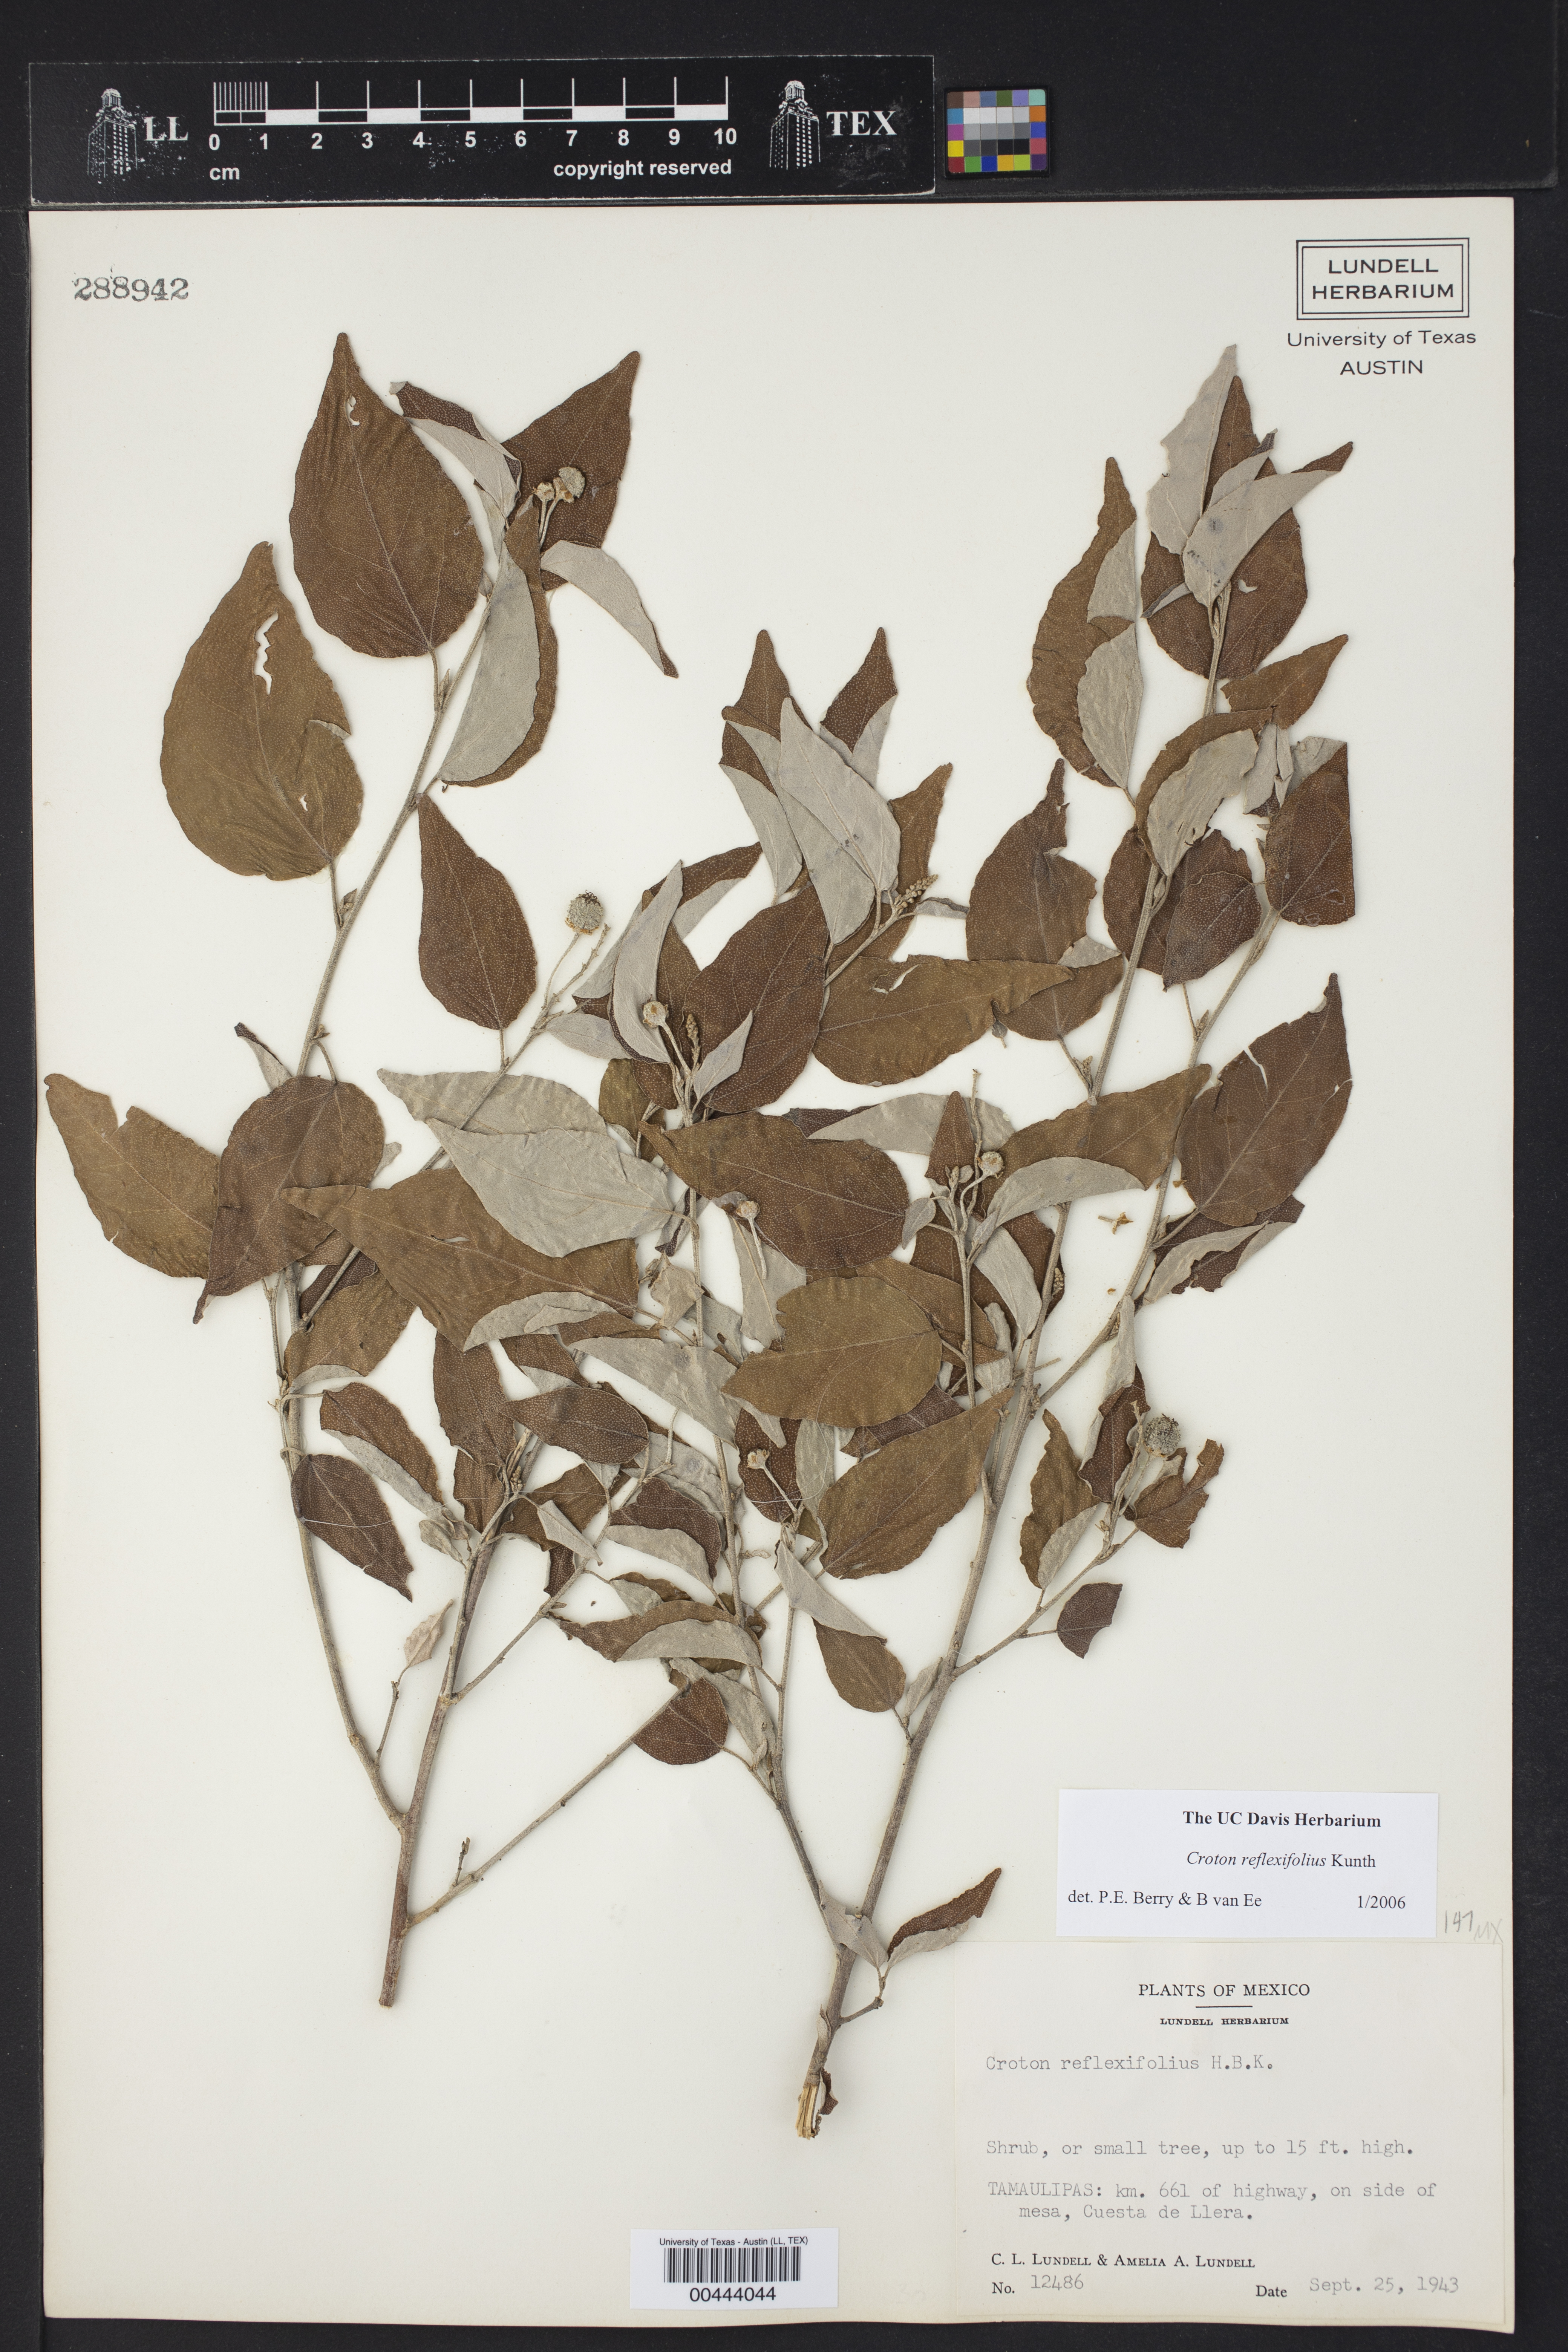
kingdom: Plantae
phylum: Tracheophyta
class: Magnoliopsida
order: Malpighiales
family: Euphorbiaceae
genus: Croton
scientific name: Croton reflexifolius
